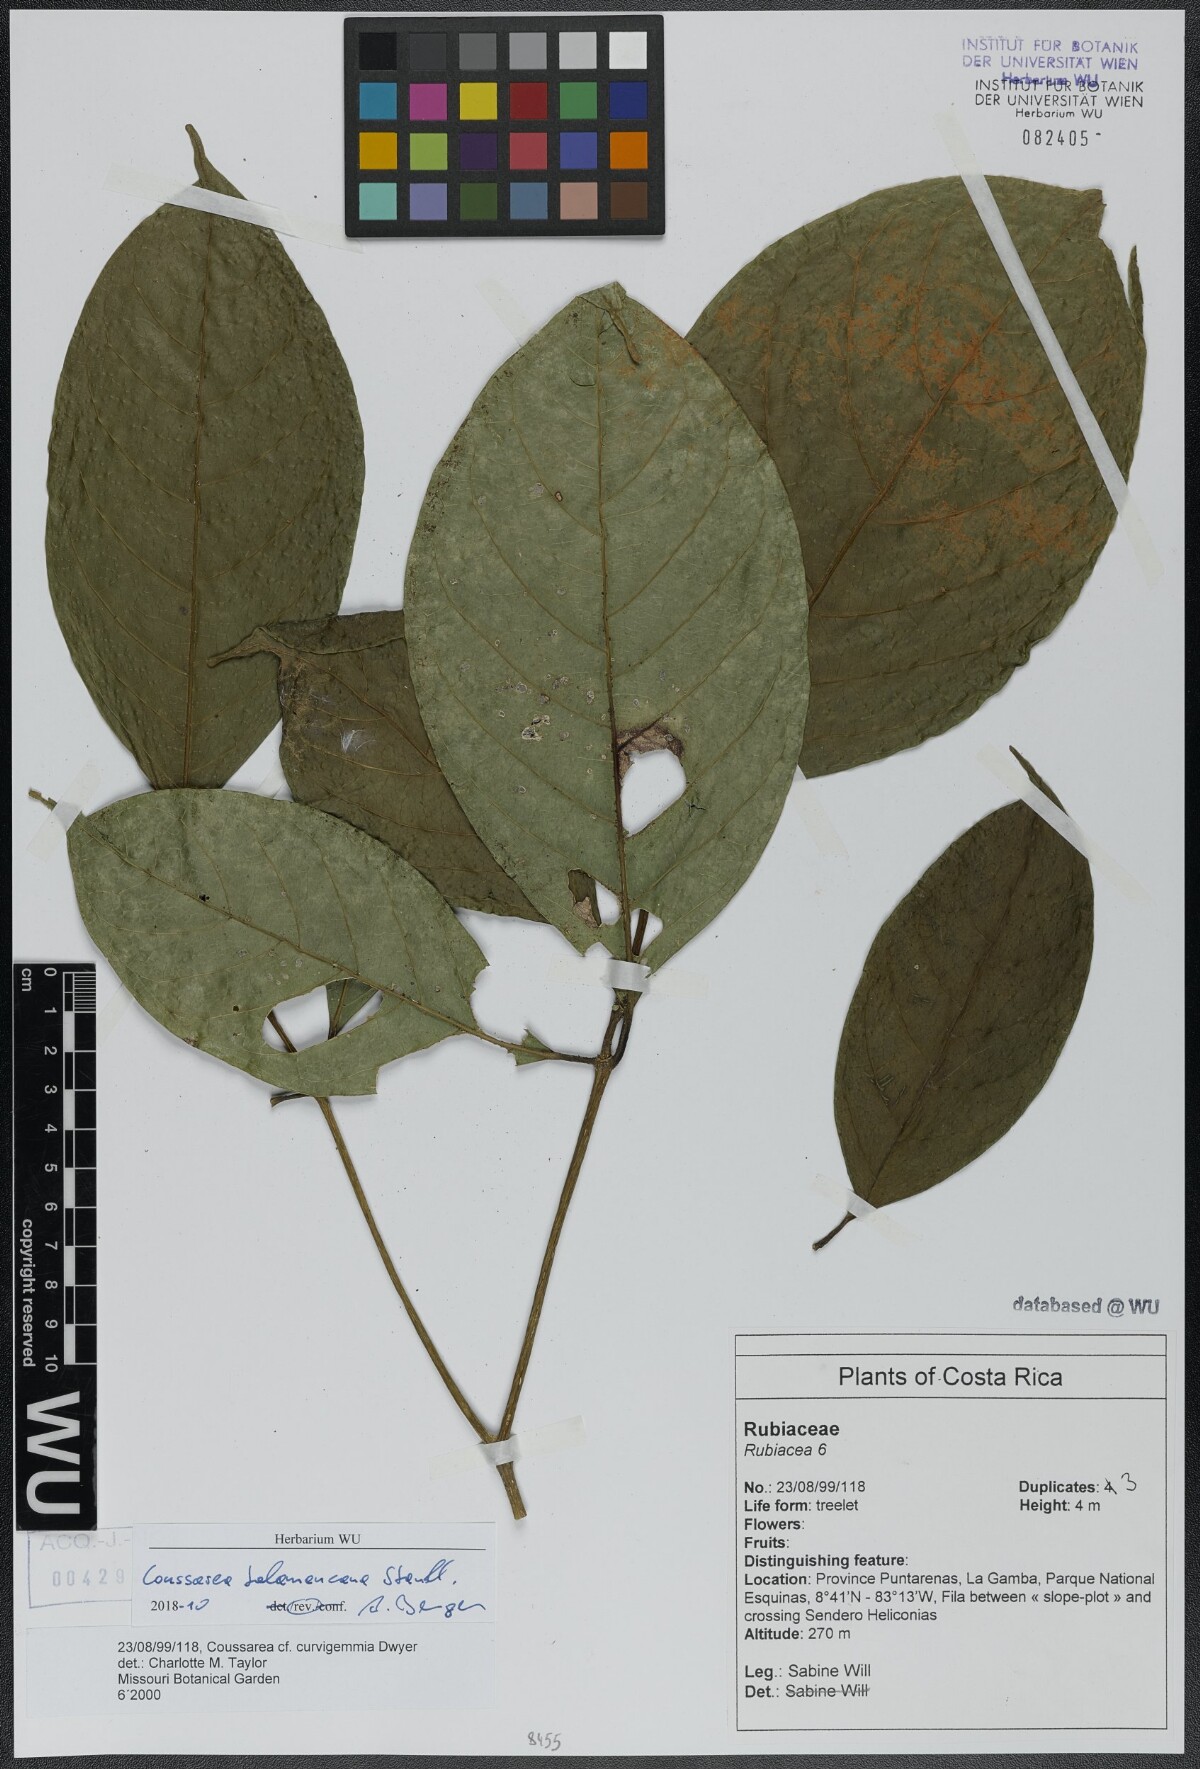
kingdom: Plantae
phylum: Tracheophyta
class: Magnoliopsida
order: Gentianales
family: Rubiaceae
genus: Coussarea
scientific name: Coussarea talamancana
